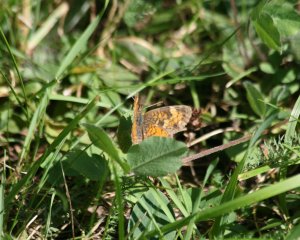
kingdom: Animalia
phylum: Arthropoda
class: Insecta
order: Lepidoptera
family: Nymphalidae
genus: Phyciodes
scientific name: Phyciodes tharos
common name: Northern Crescent
